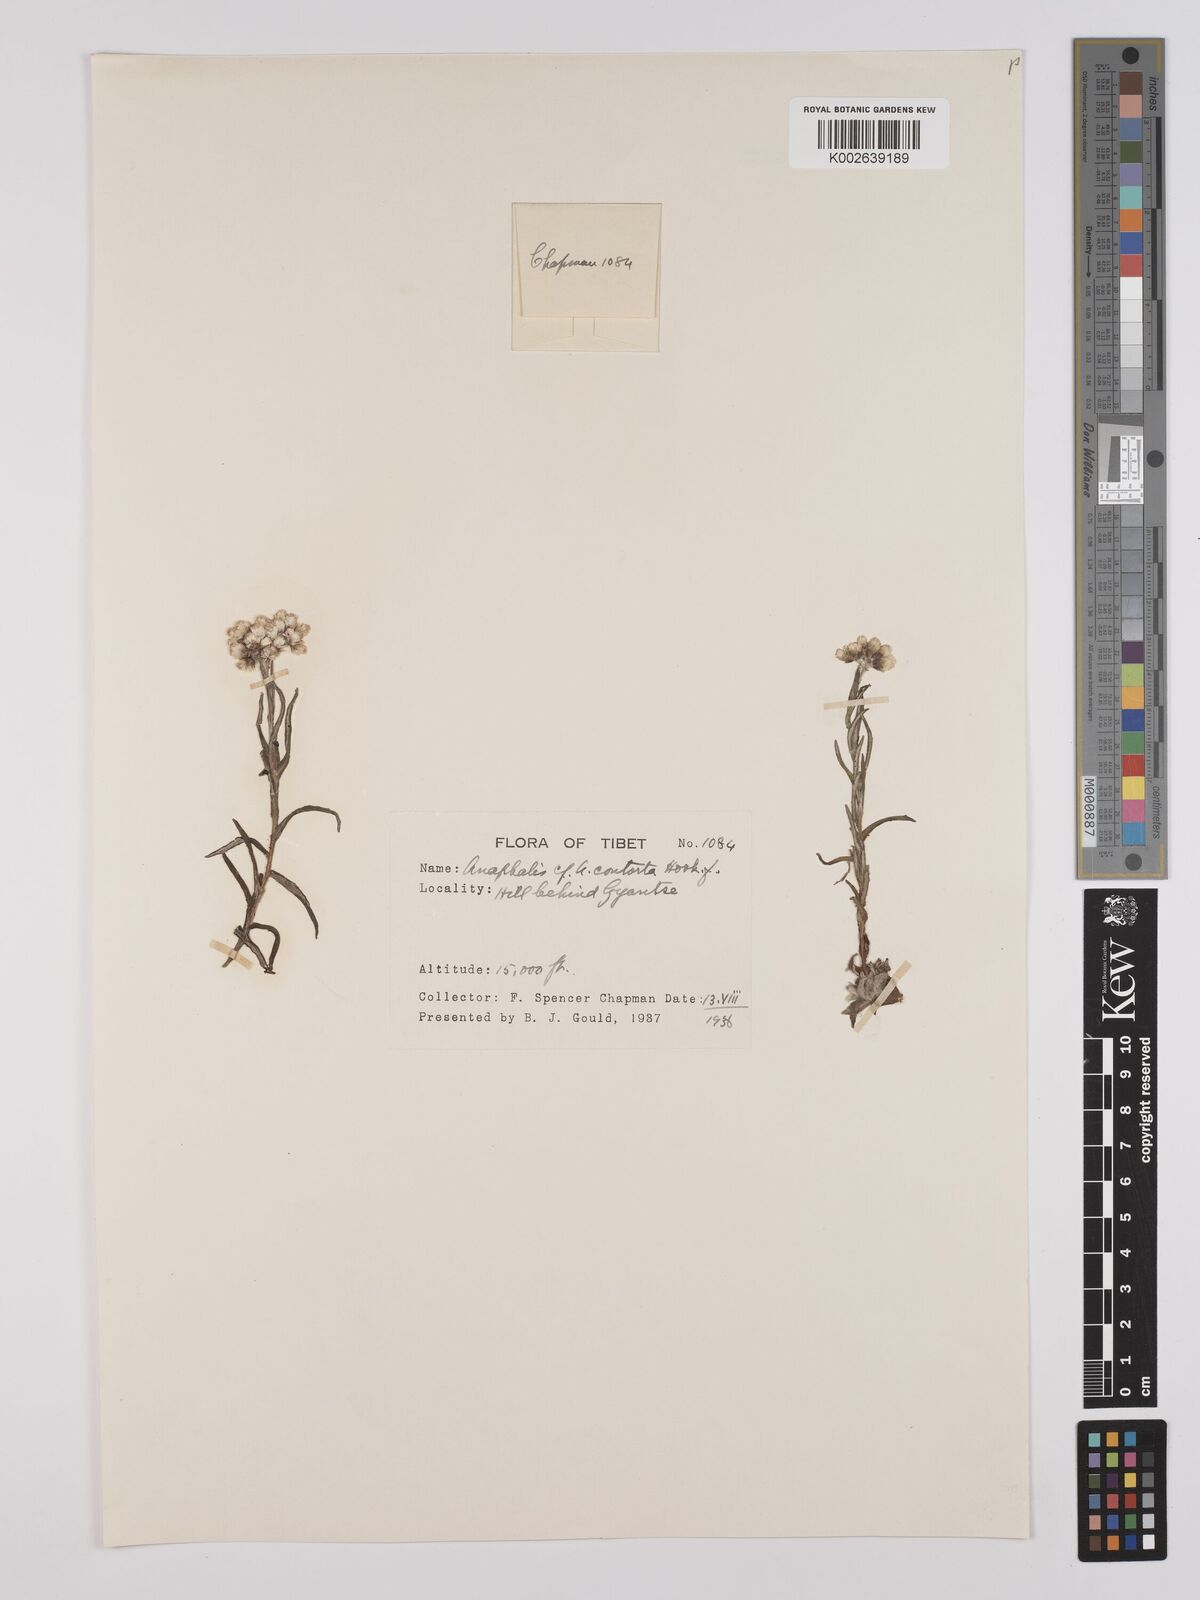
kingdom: Plantae
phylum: Tracheophyta
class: Magnoliopsida
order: Asterales
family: Asteraceae
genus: Anaphalis
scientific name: Anaphalis contorta
